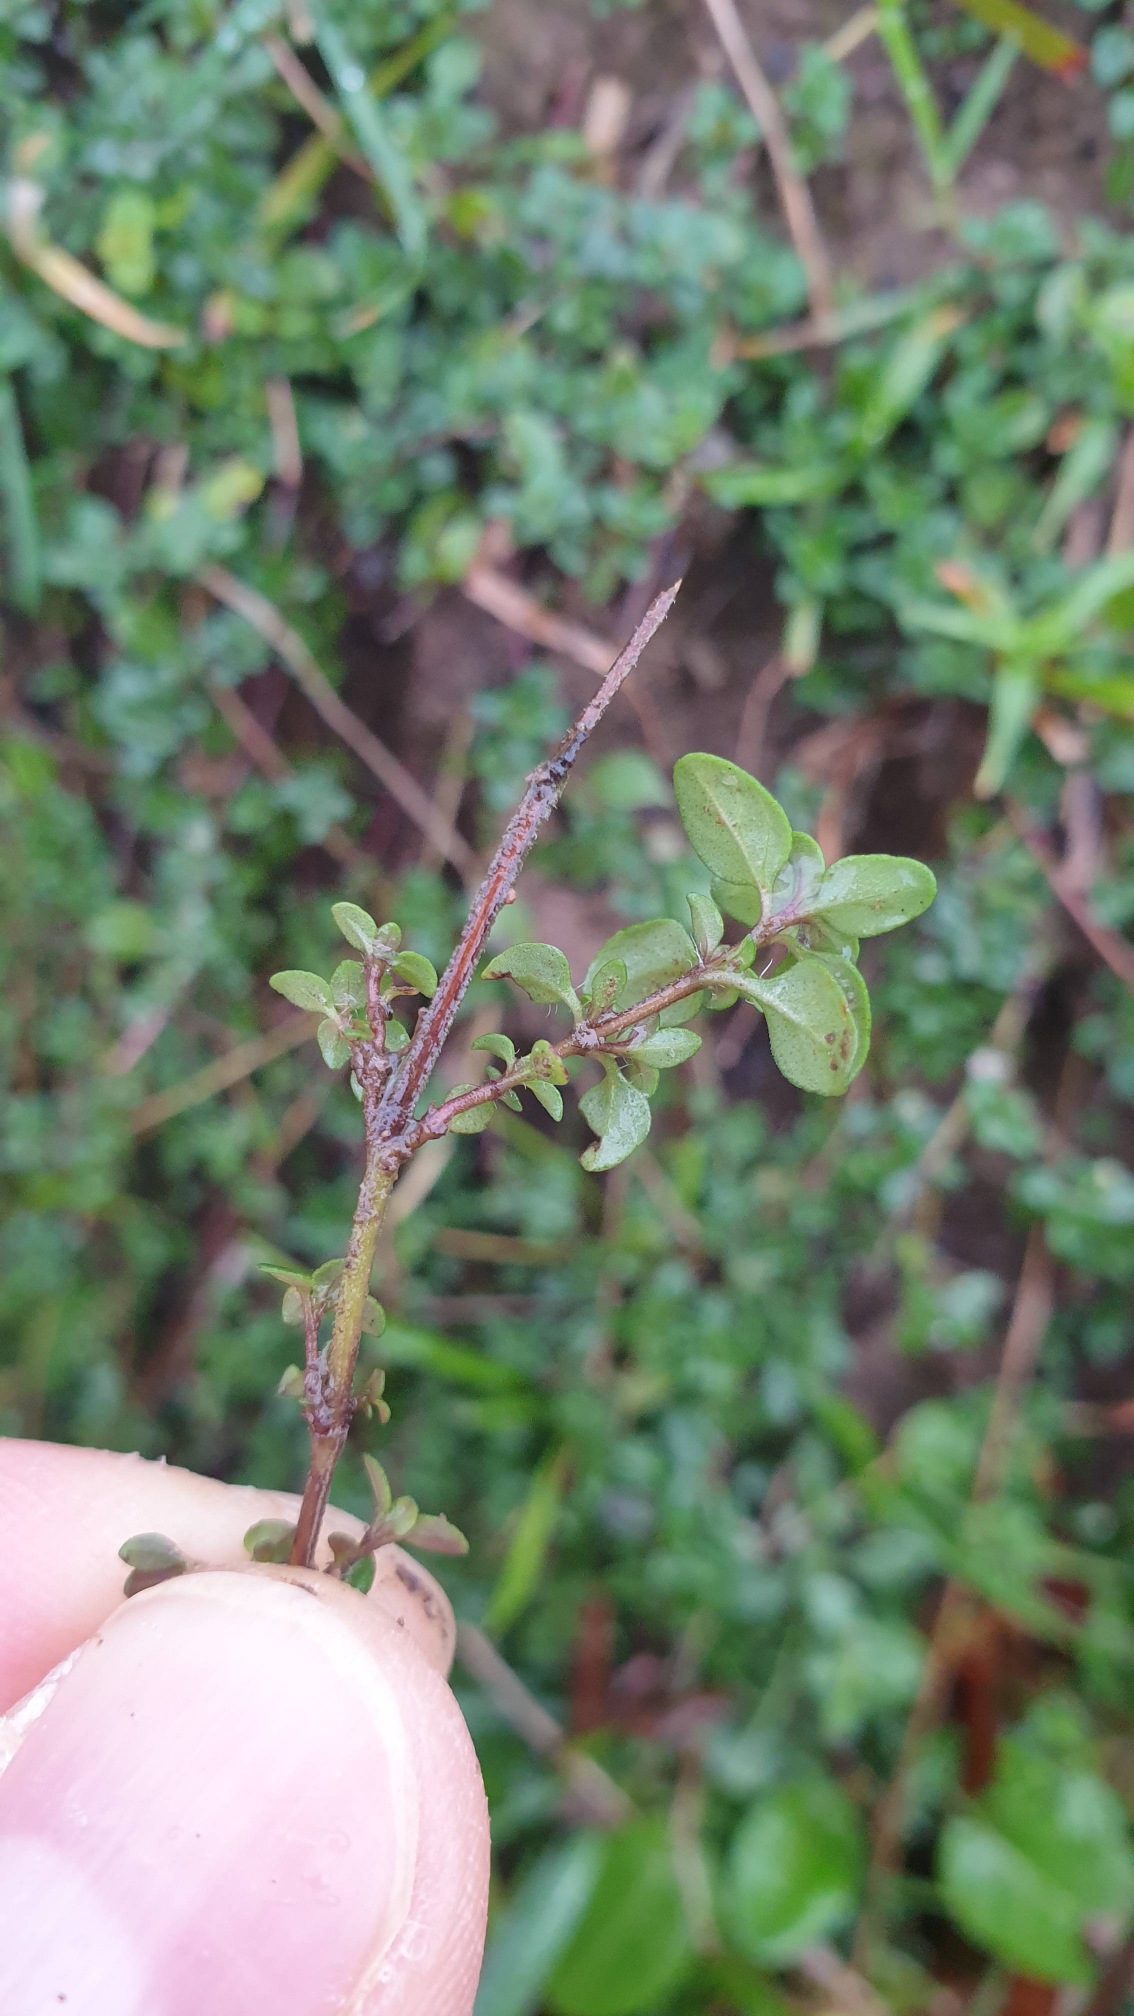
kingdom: Plantae
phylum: Tracheophyta
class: Magnoliopsida
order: Lamiales
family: Lamiaceae
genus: Thymus
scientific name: Thymus pulegioides
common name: Bredbladet timian
